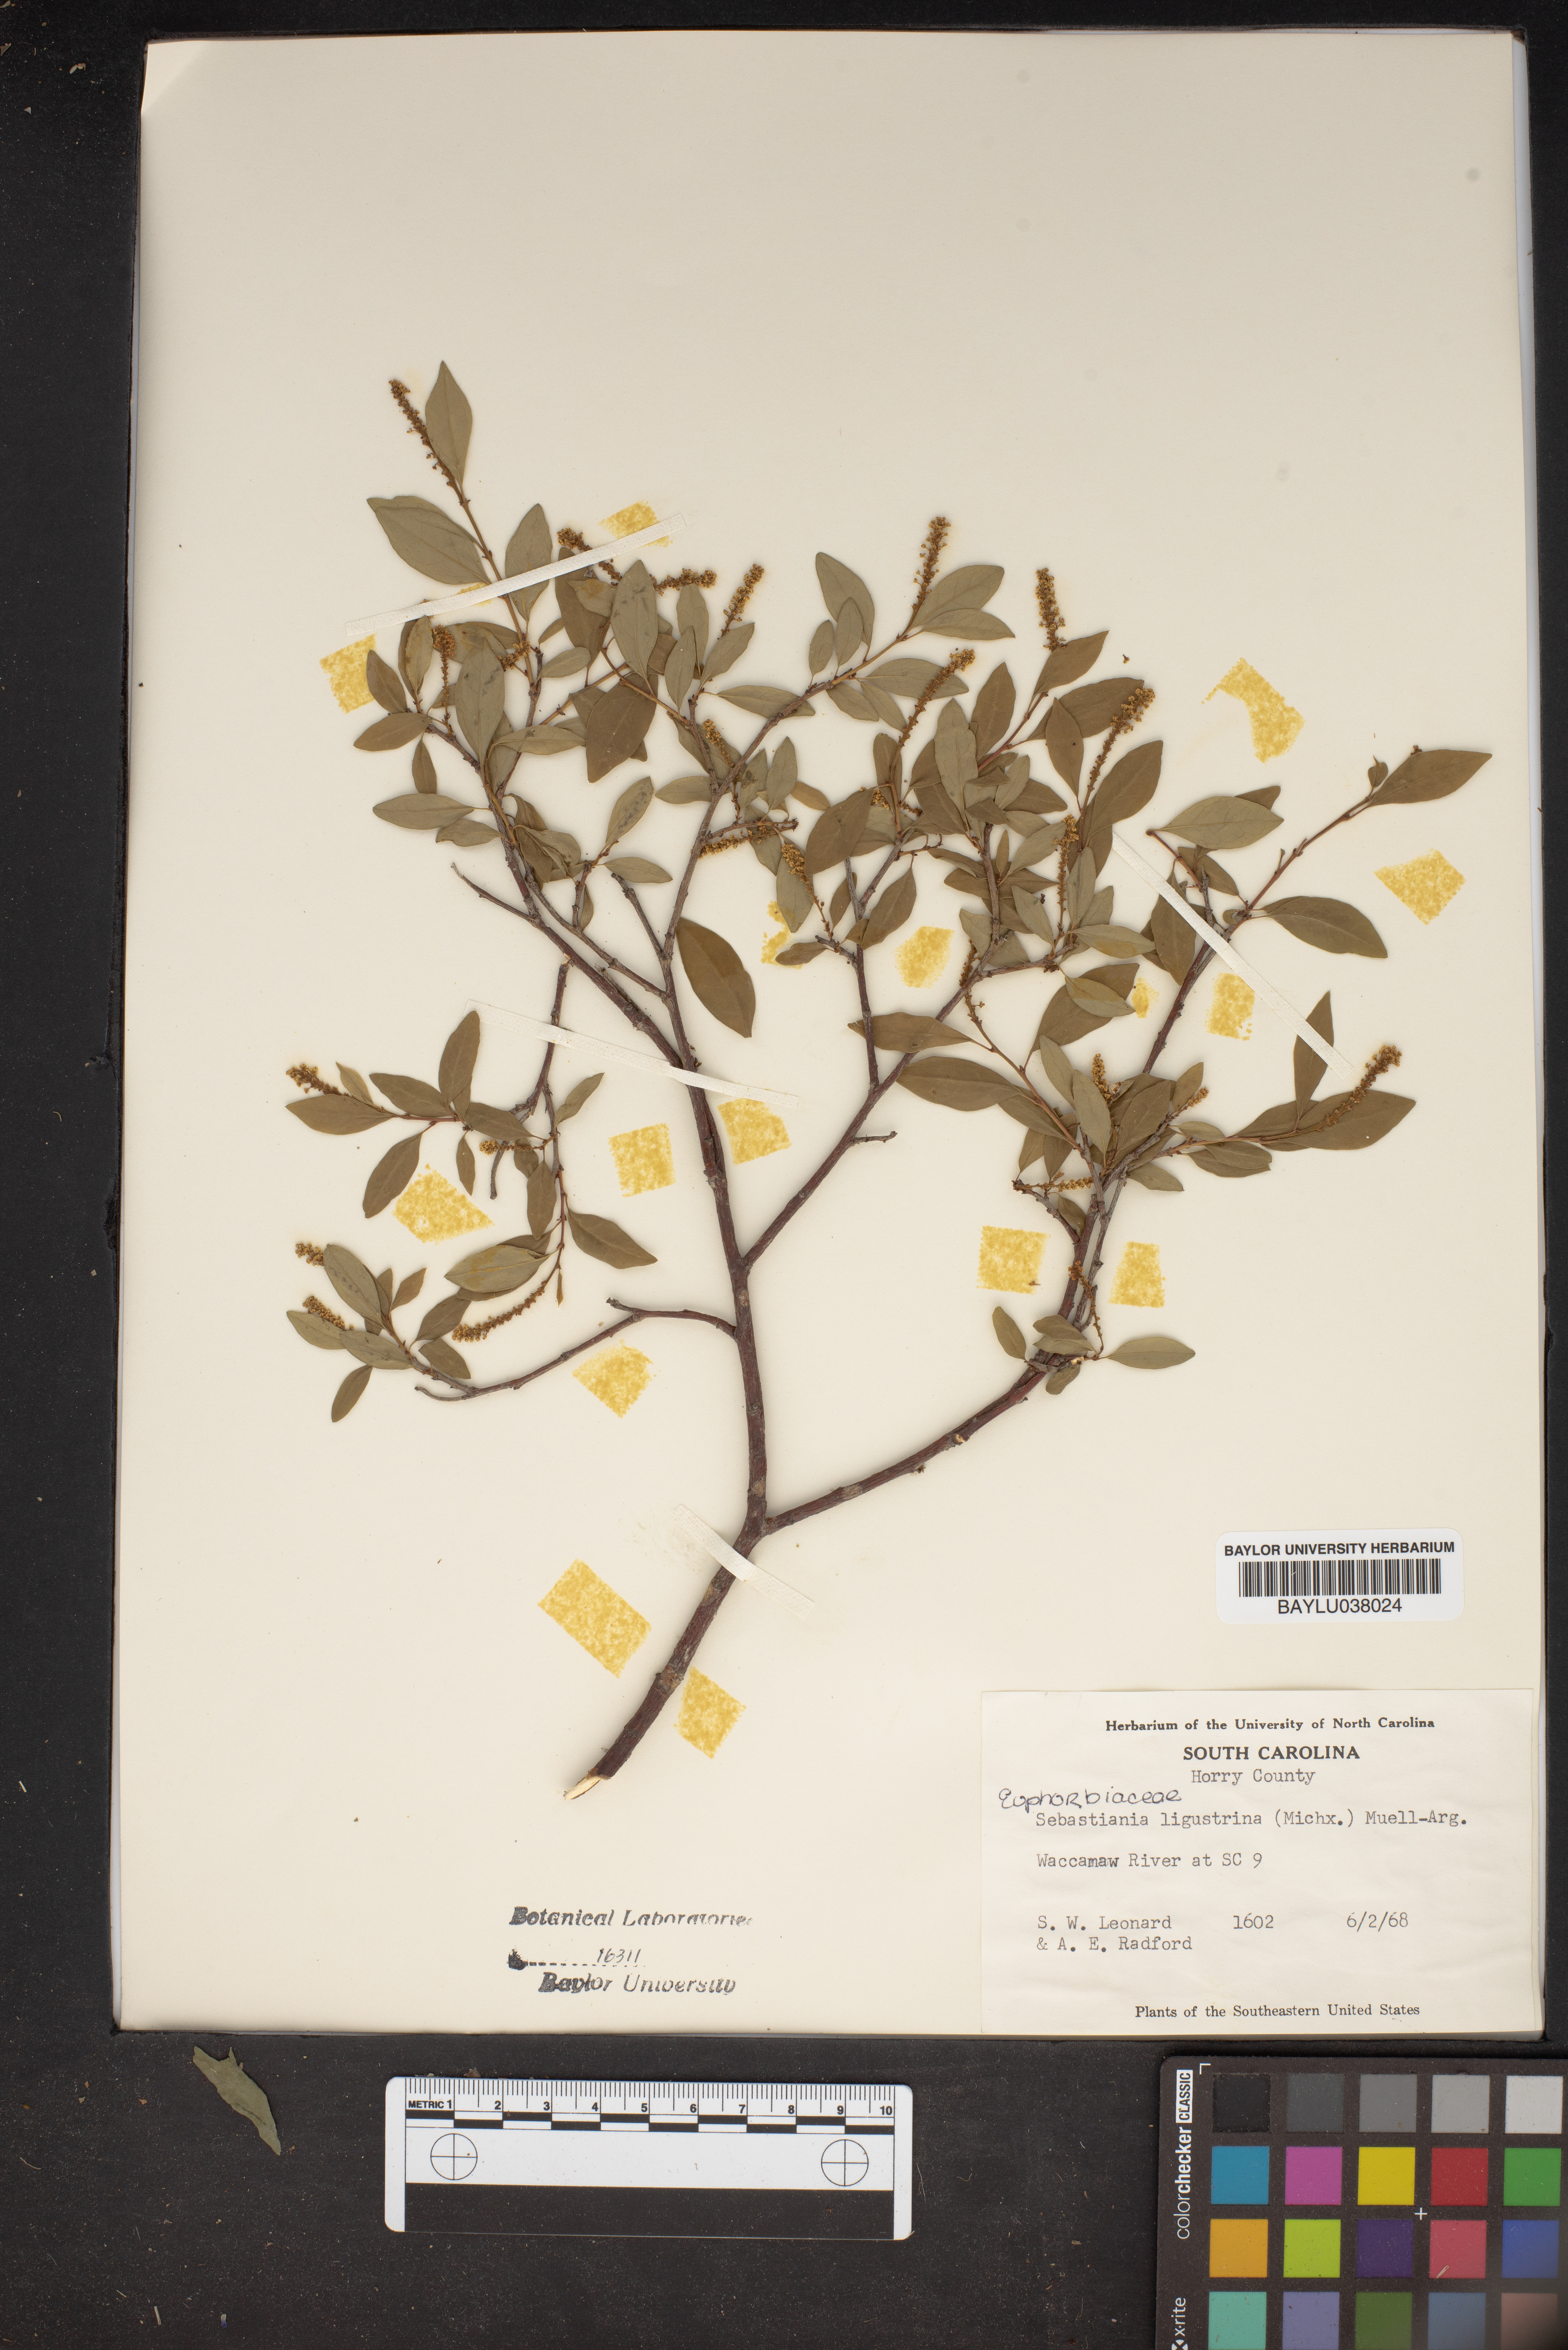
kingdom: Plantae
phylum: Tracheophyta
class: Magnoliopsida
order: Malpighiales
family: Euphorbiaceae
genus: Ditrysinia
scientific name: Ditrysinia fruticosa
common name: Gulf sebastian-bush
